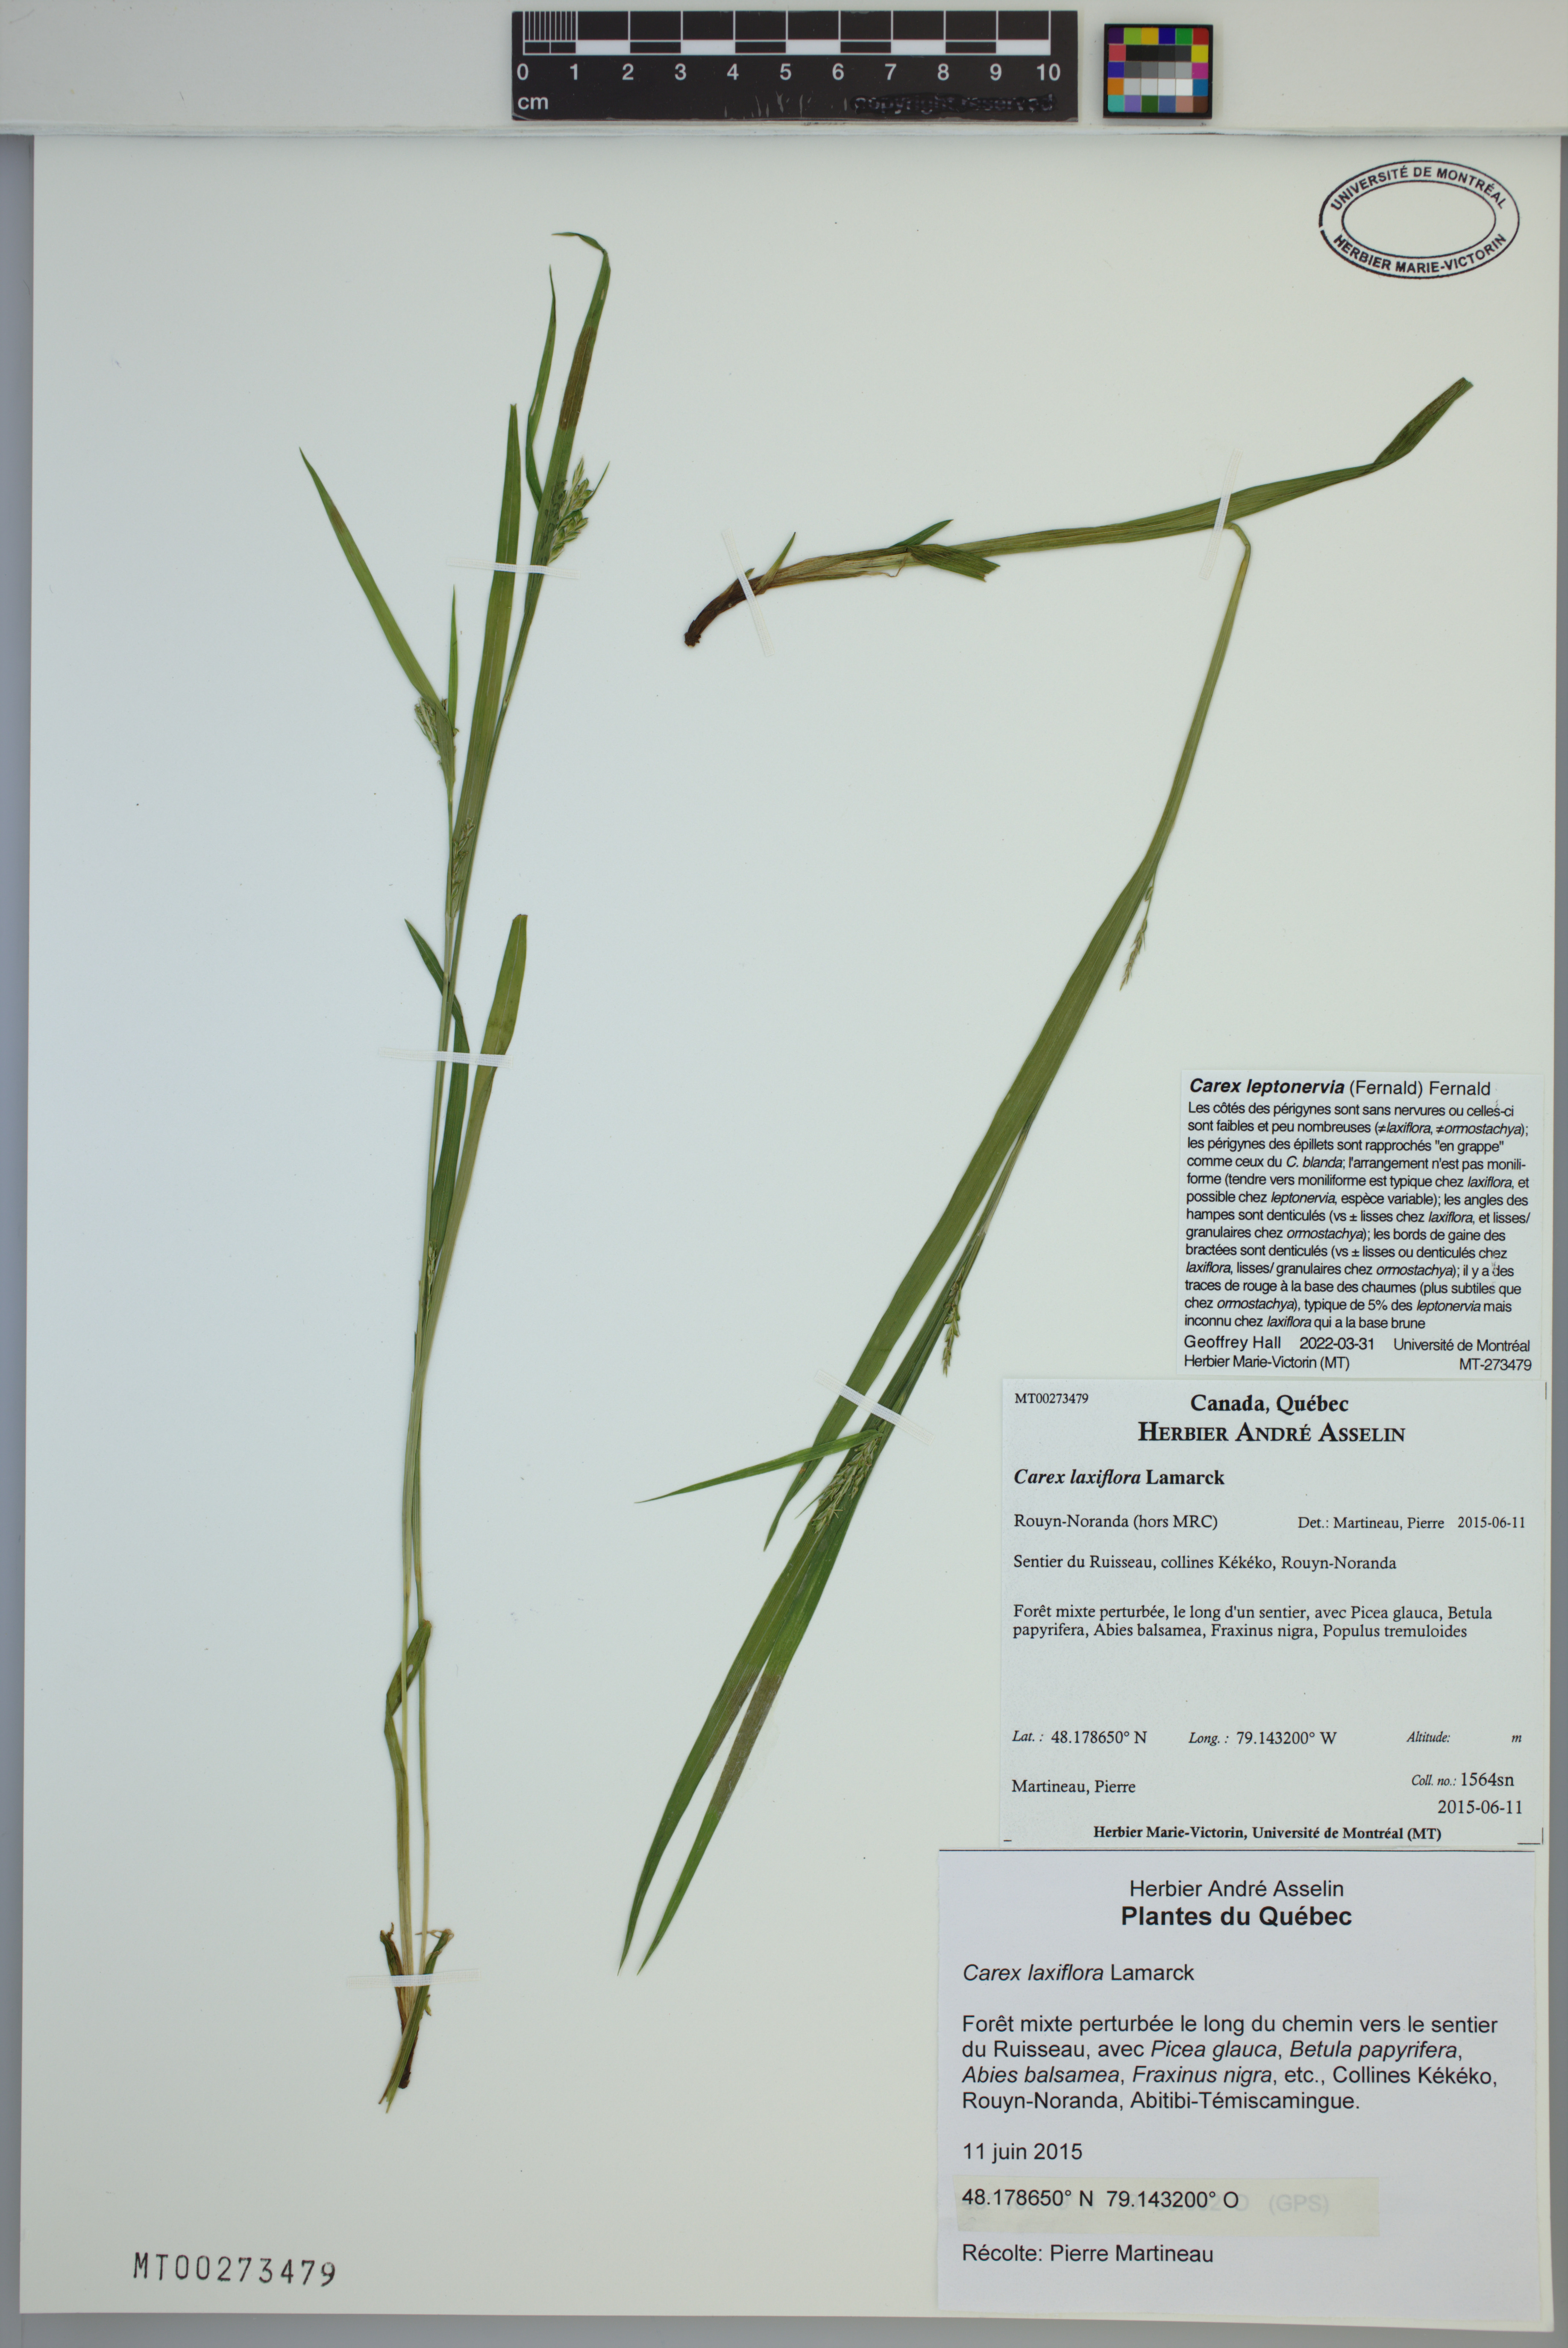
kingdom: Plantae
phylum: Tracheophyta
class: Liliopsida
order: Poales
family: Cyperaceae
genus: Carex
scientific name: Carex leptonervia
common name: Few-nerved wood sedge
